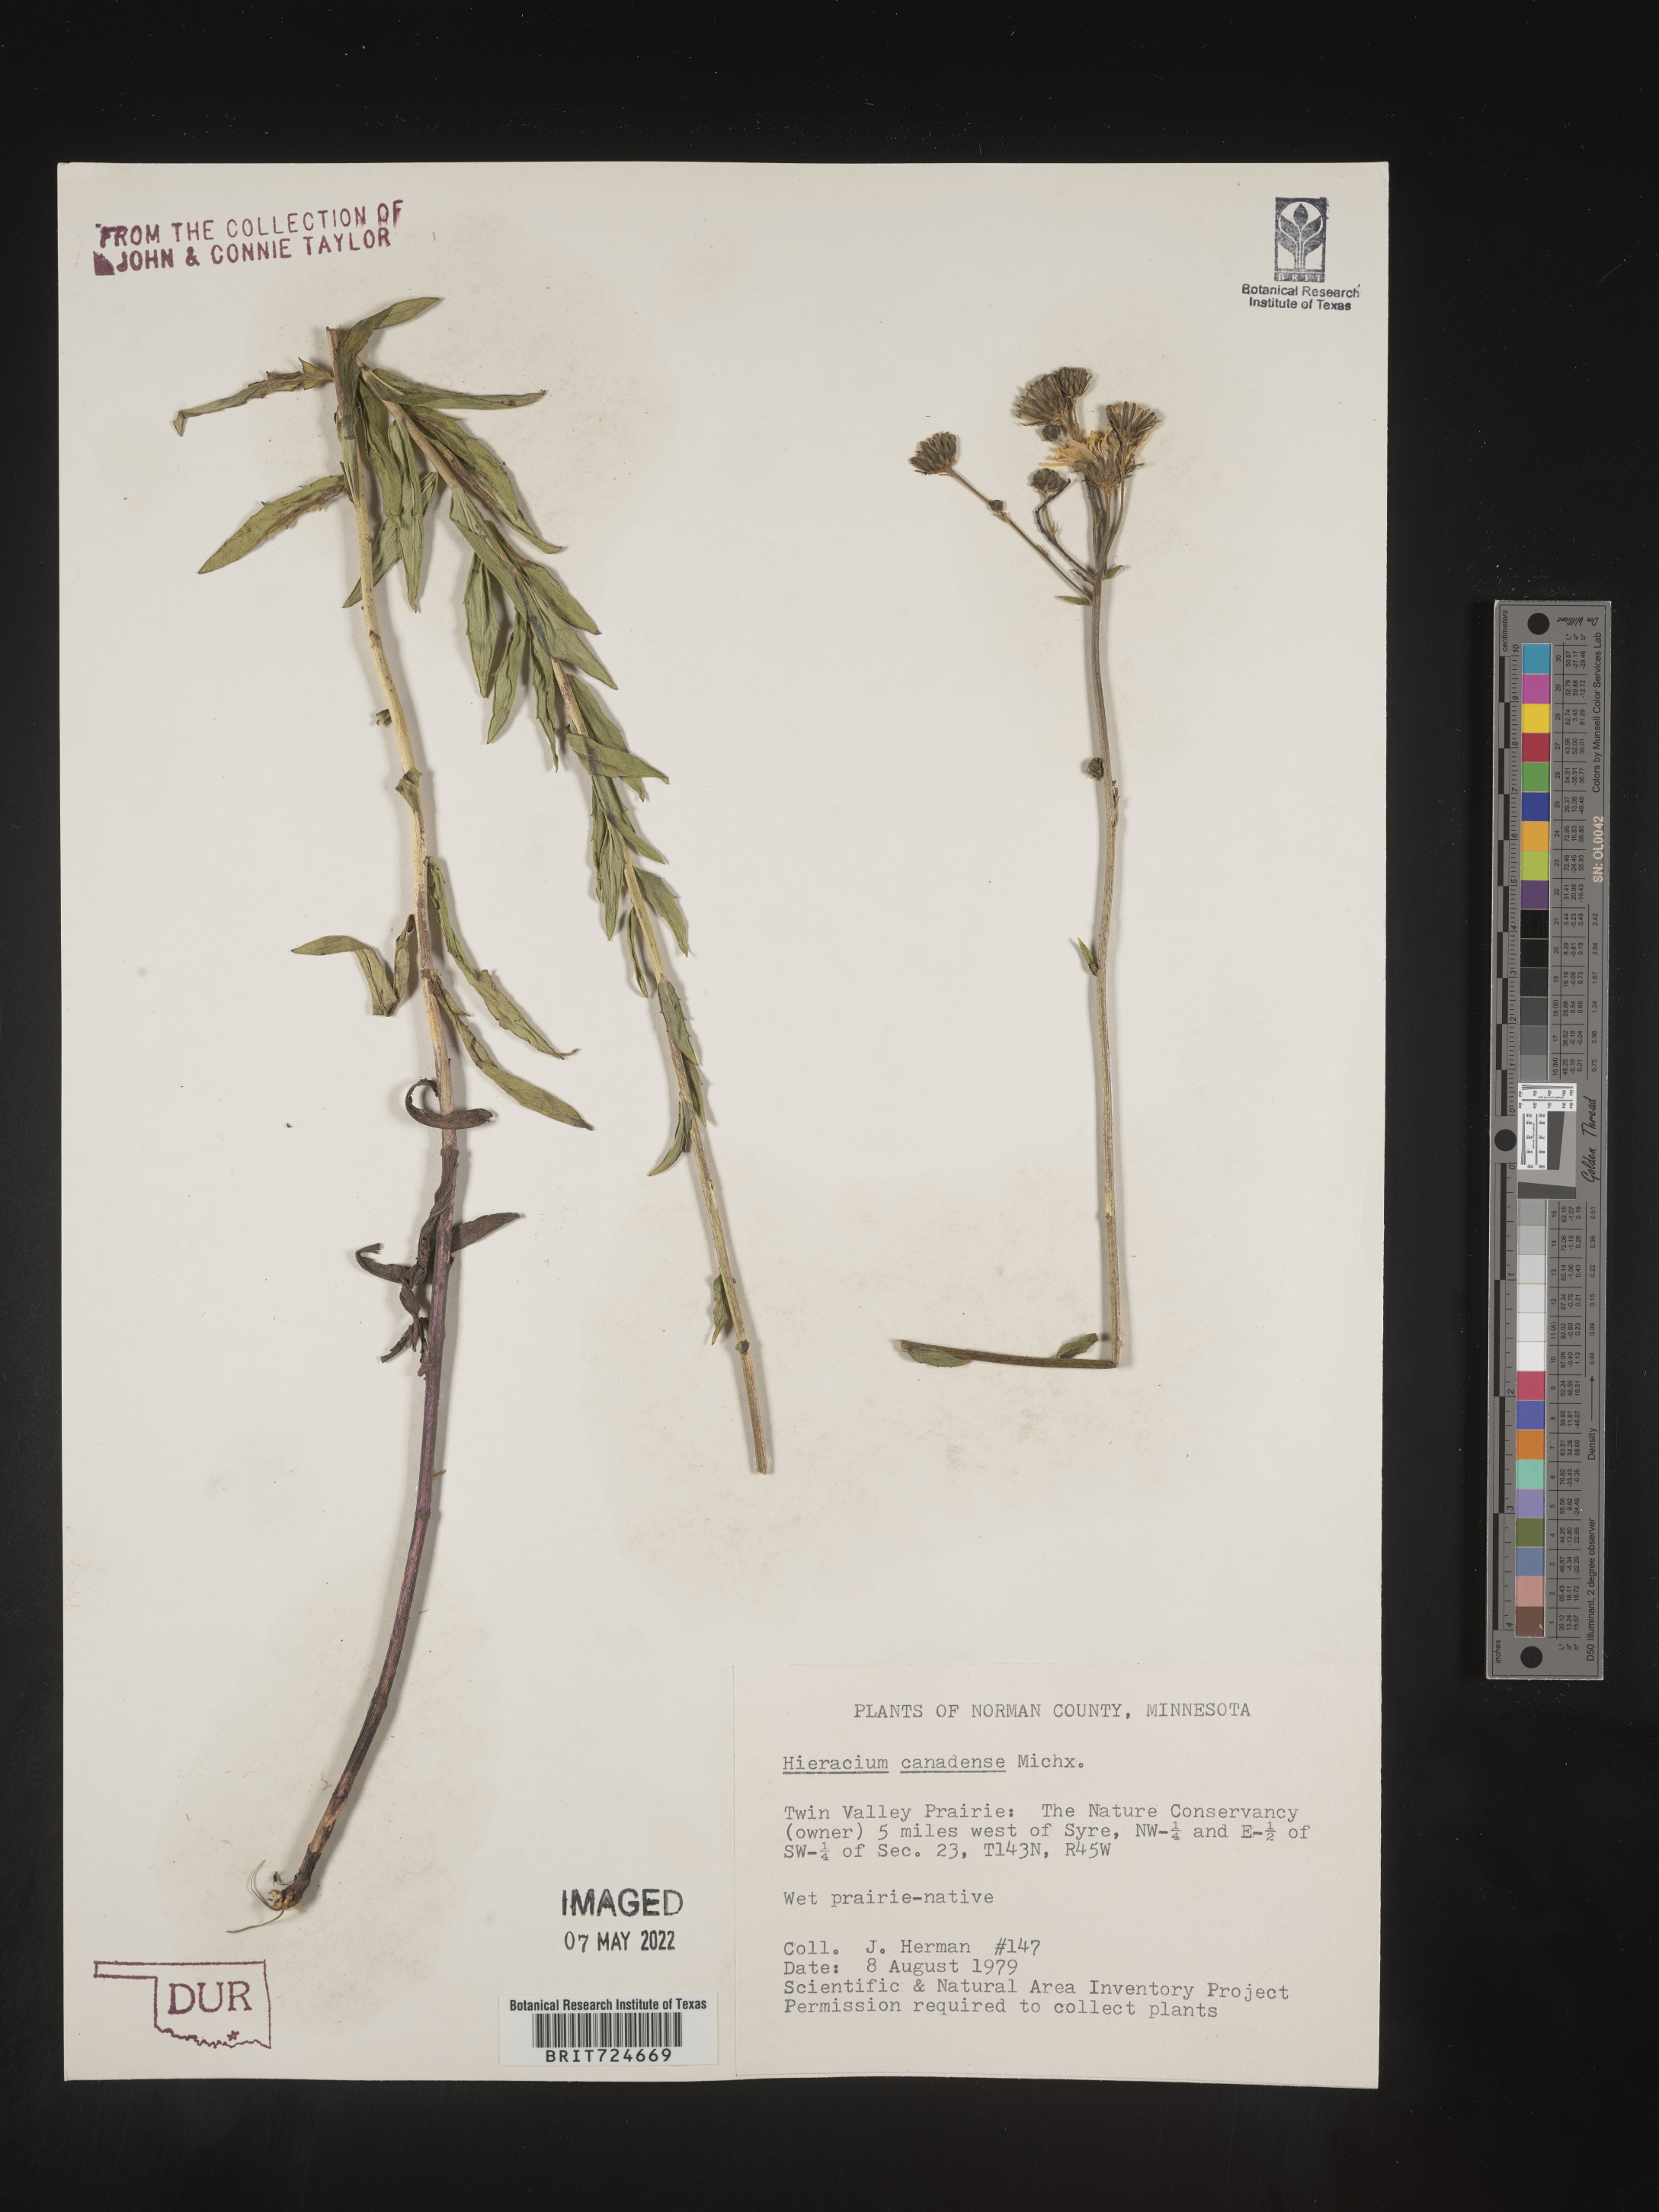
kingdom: Plantae
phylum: Tracheophyta
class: Magnoliopsida
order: Asterales
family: Asteraceae
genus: Hieracium
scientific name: Hieracium
